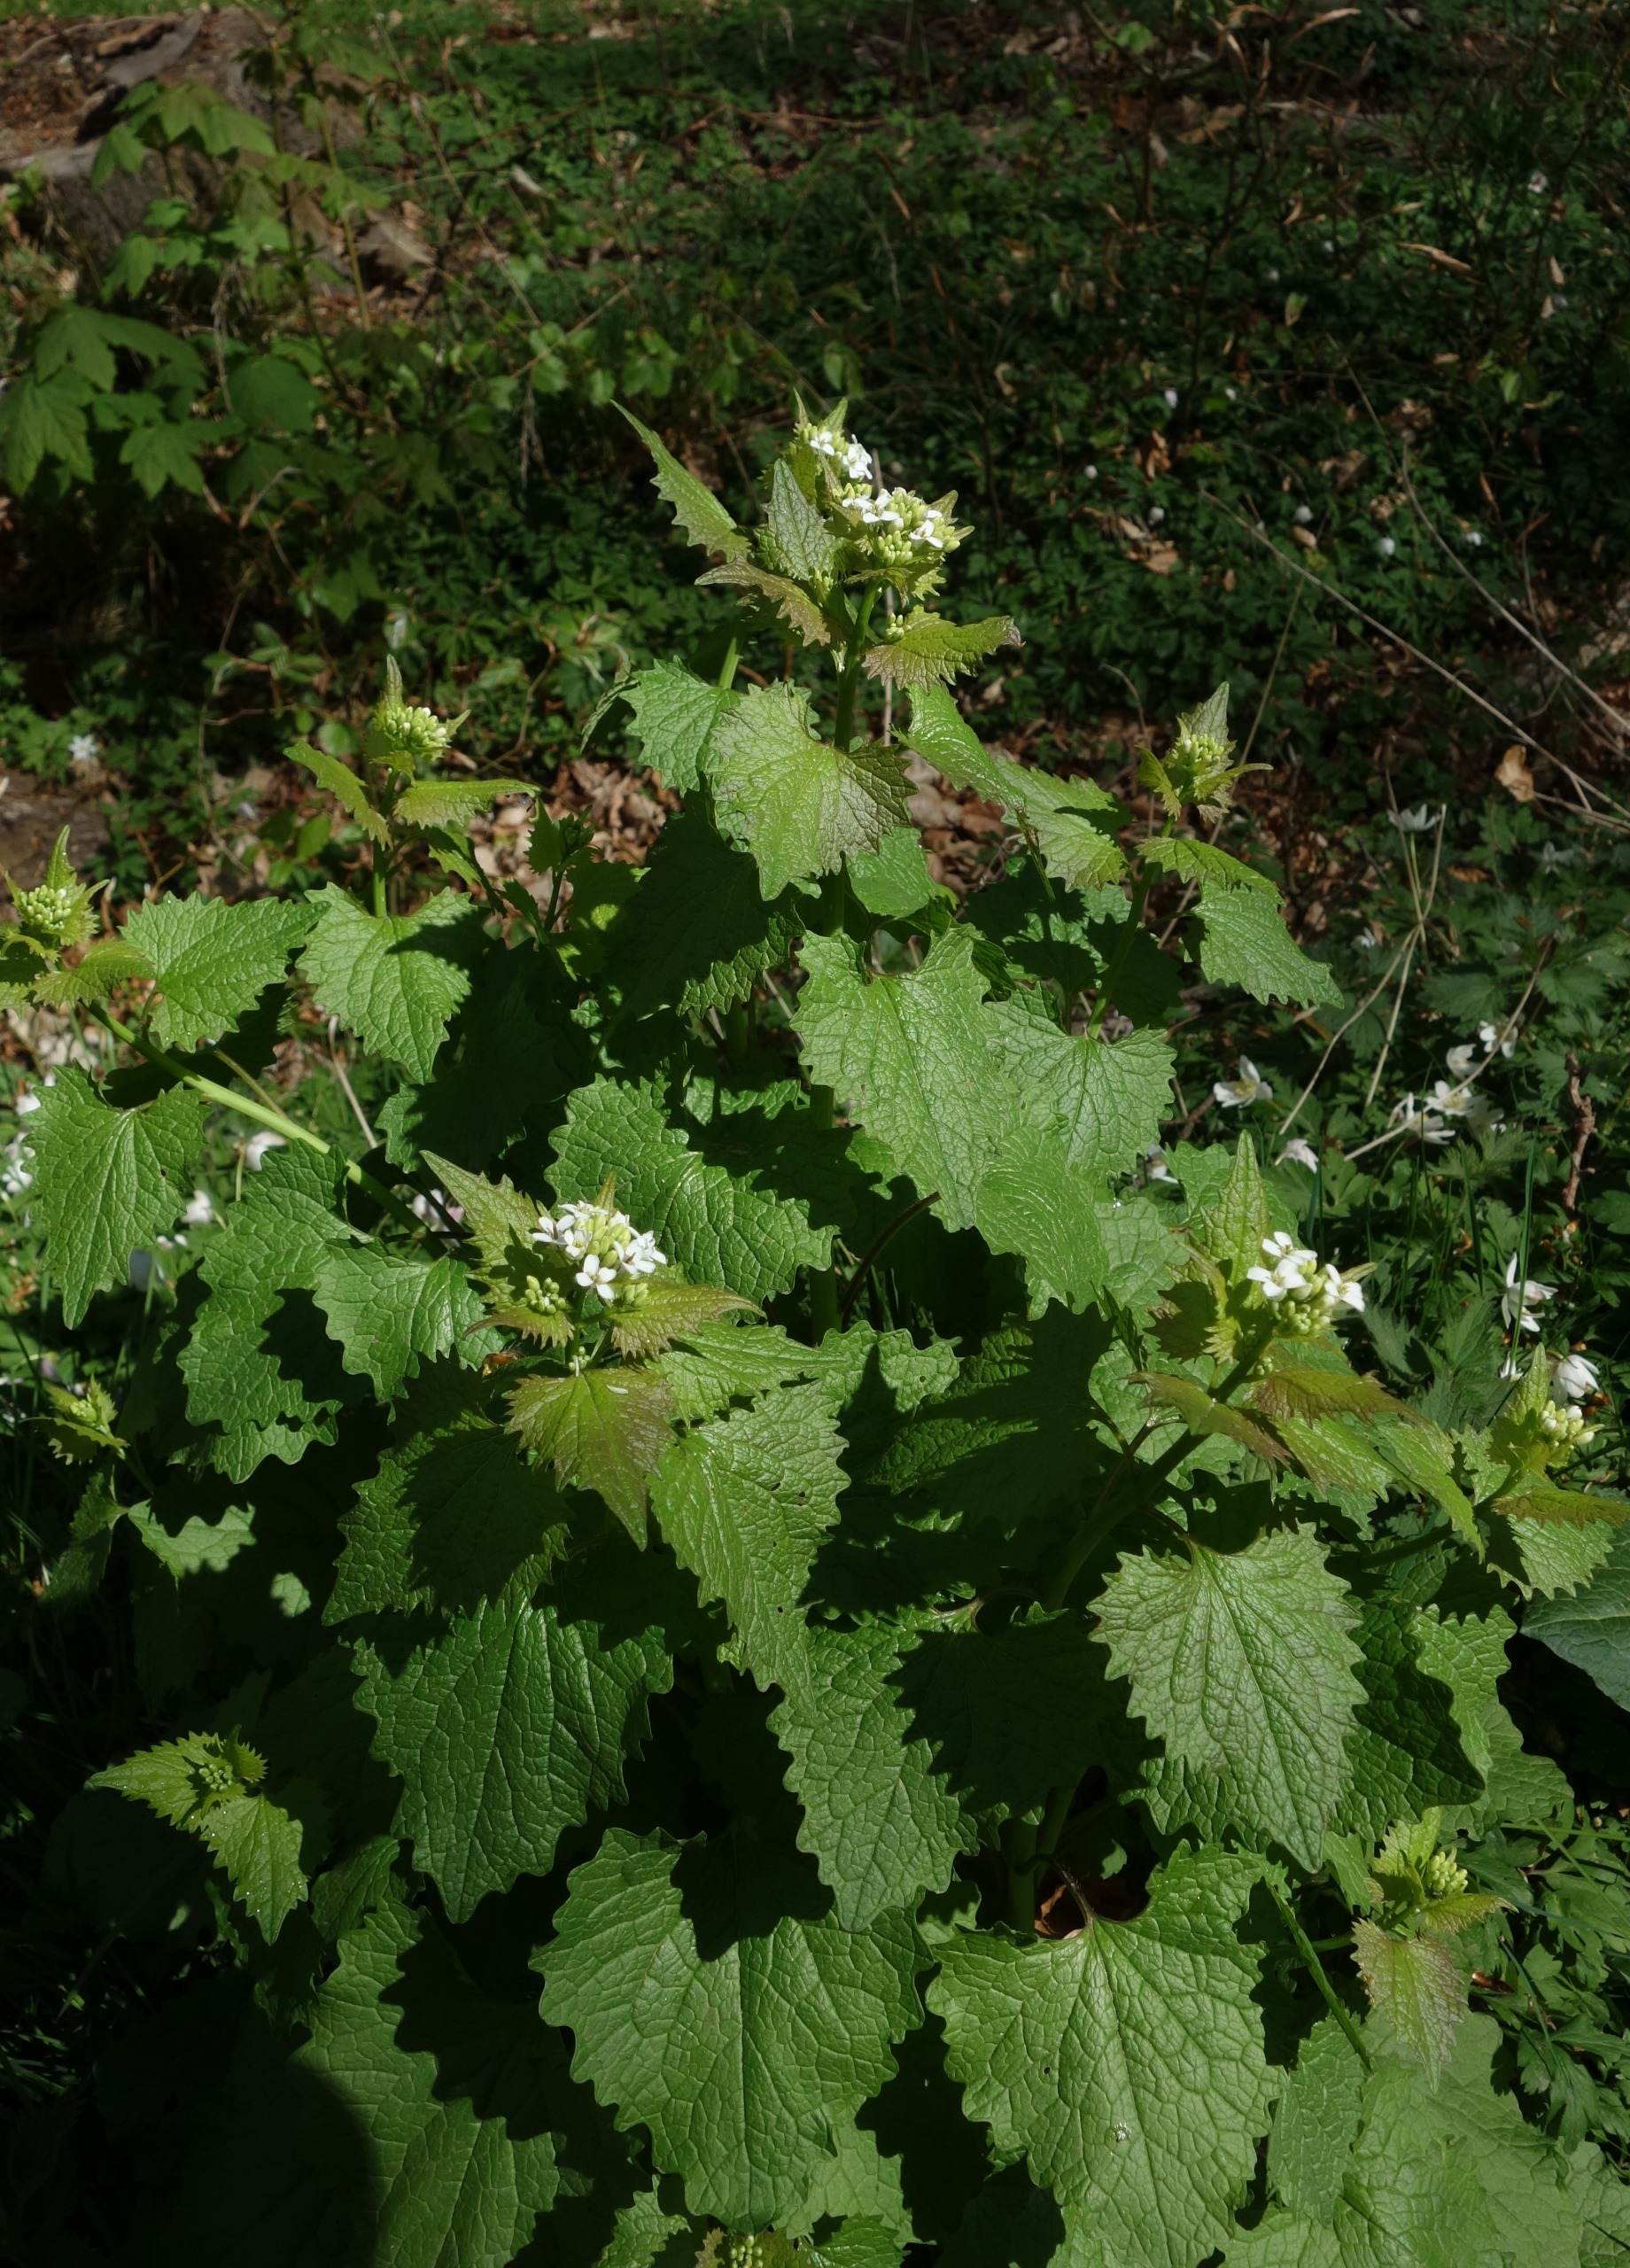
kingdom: Plantae
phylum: Tracheophyta
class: Magnoliopsida
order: Brassicales
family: Brassicaceae
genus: Alliaria
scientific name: Alliaria petiolata
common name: Løgkarse
